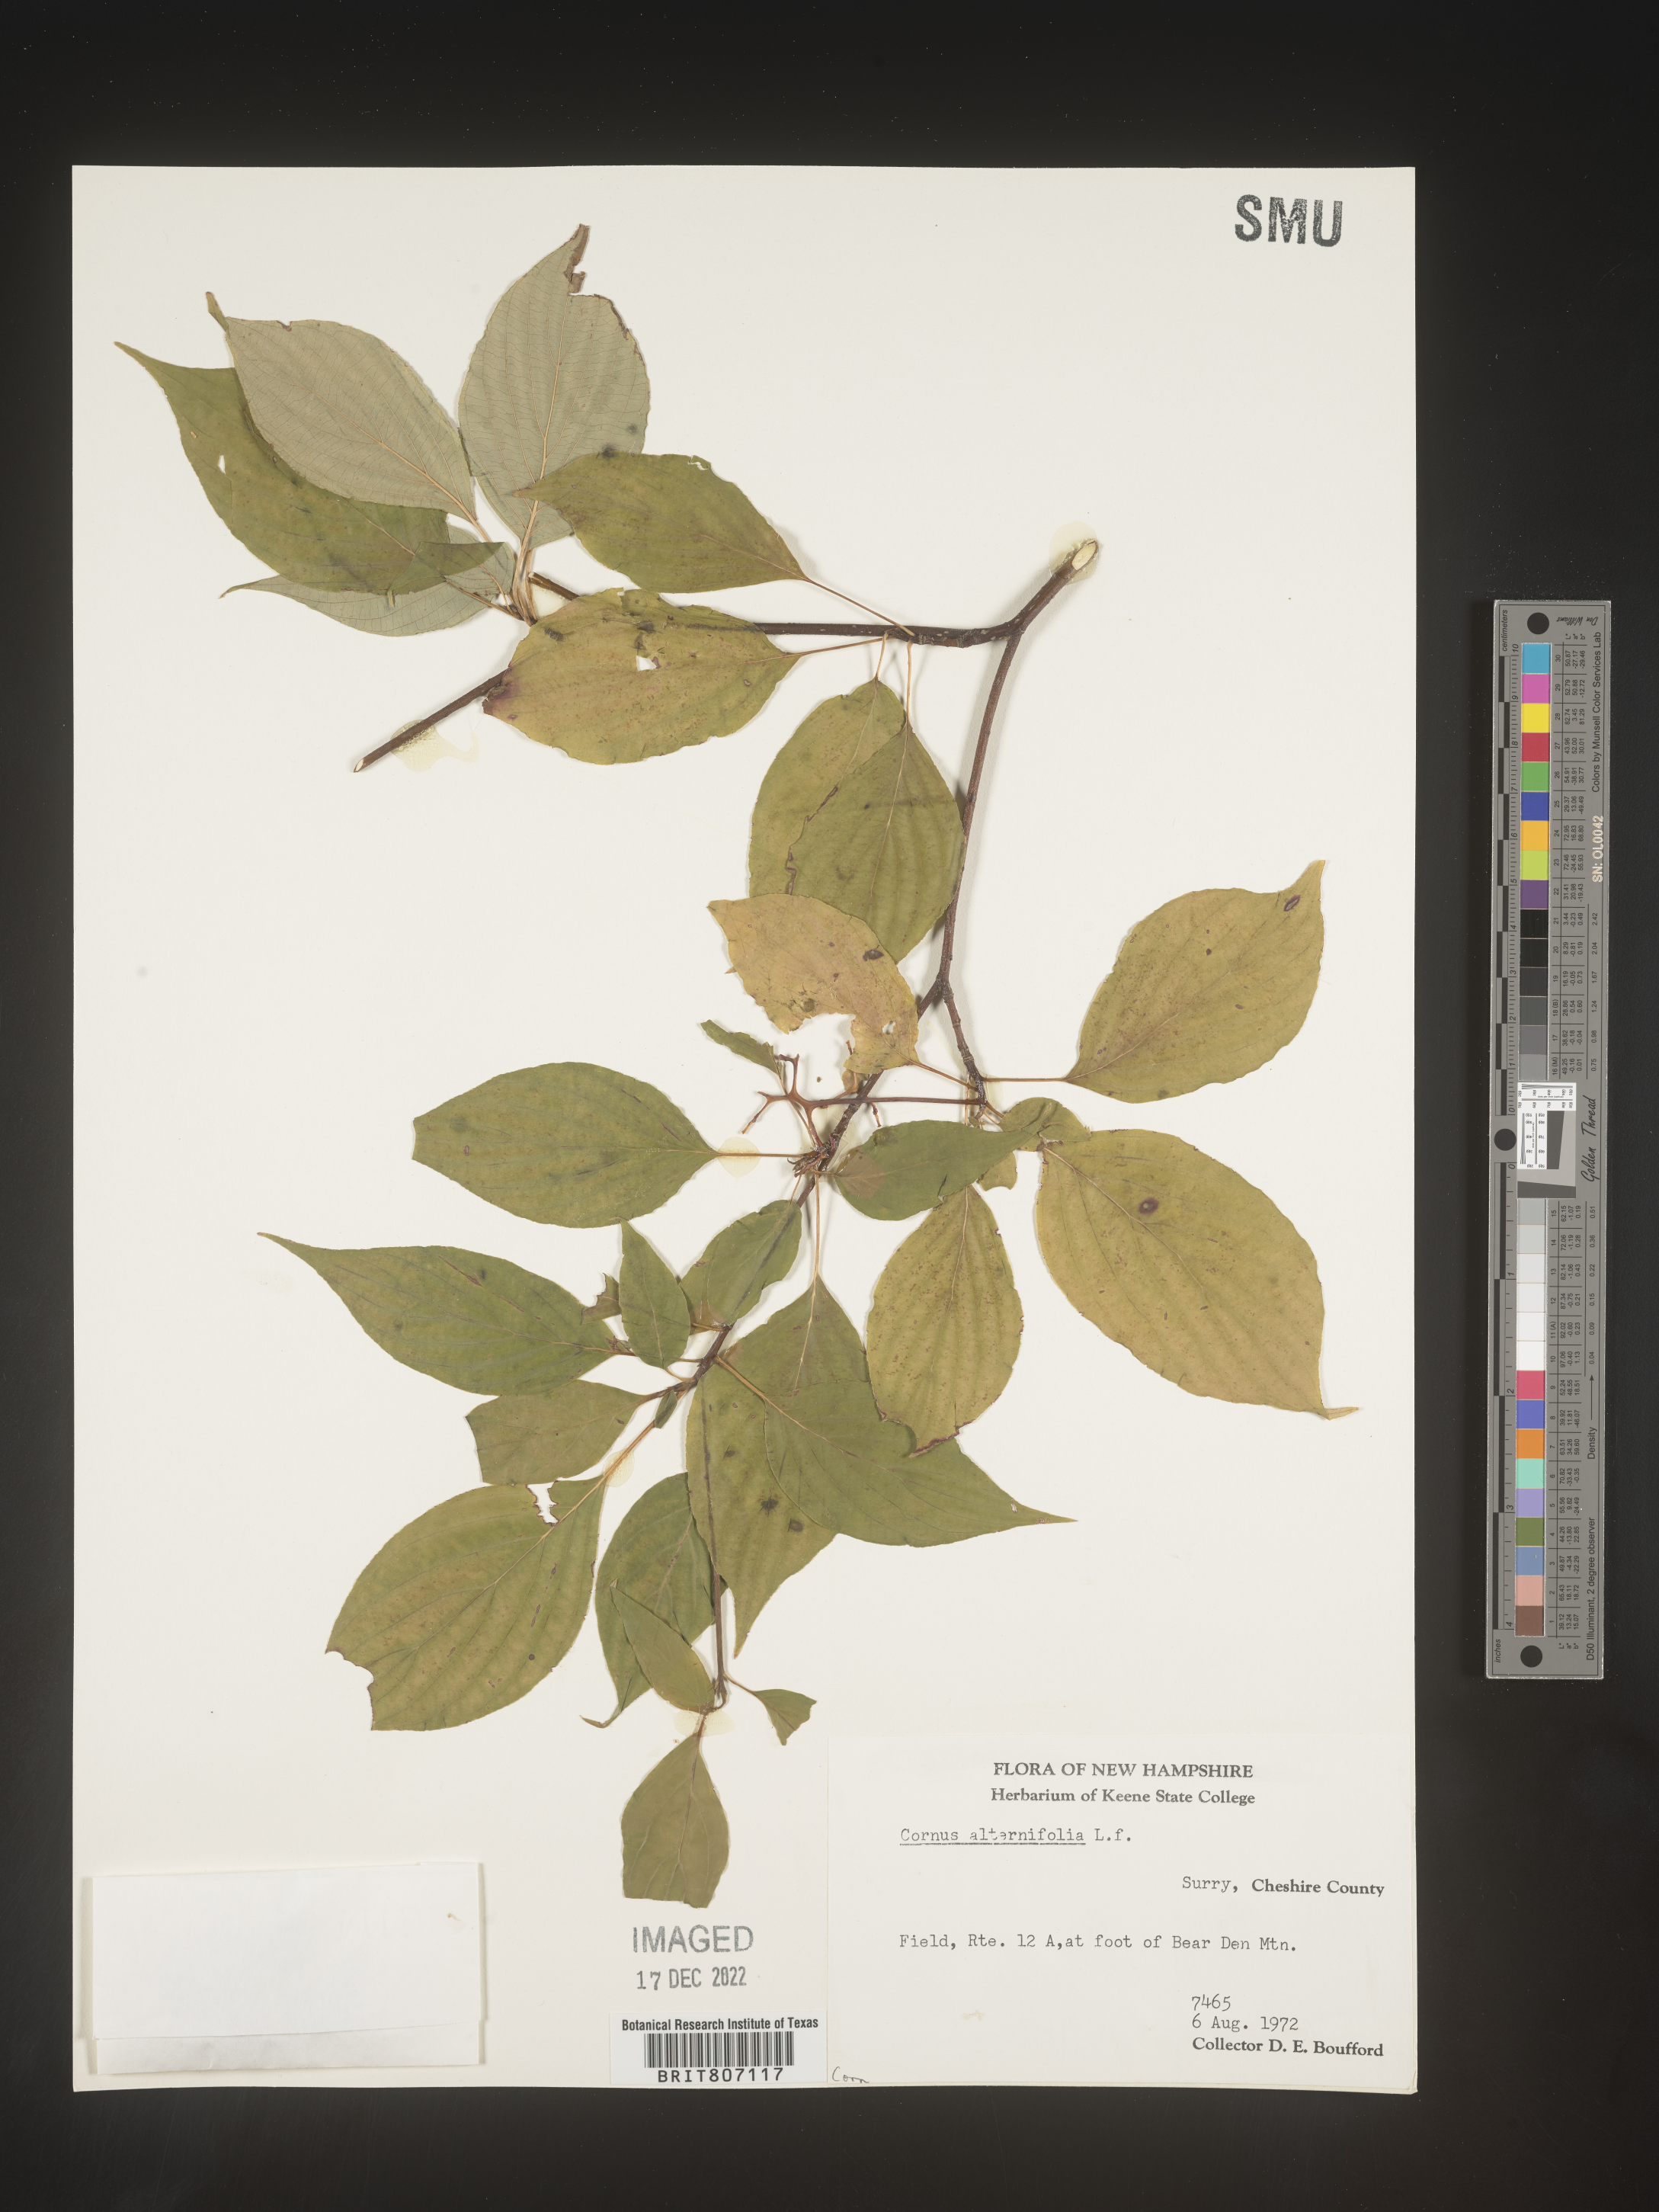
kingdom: Plantae
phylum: Tracheophyta
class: Magnoliopsida
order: Cornales
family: Cornaceae
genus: Cornus
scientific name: Cornus alternifolia
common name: Pagoda dogwood
